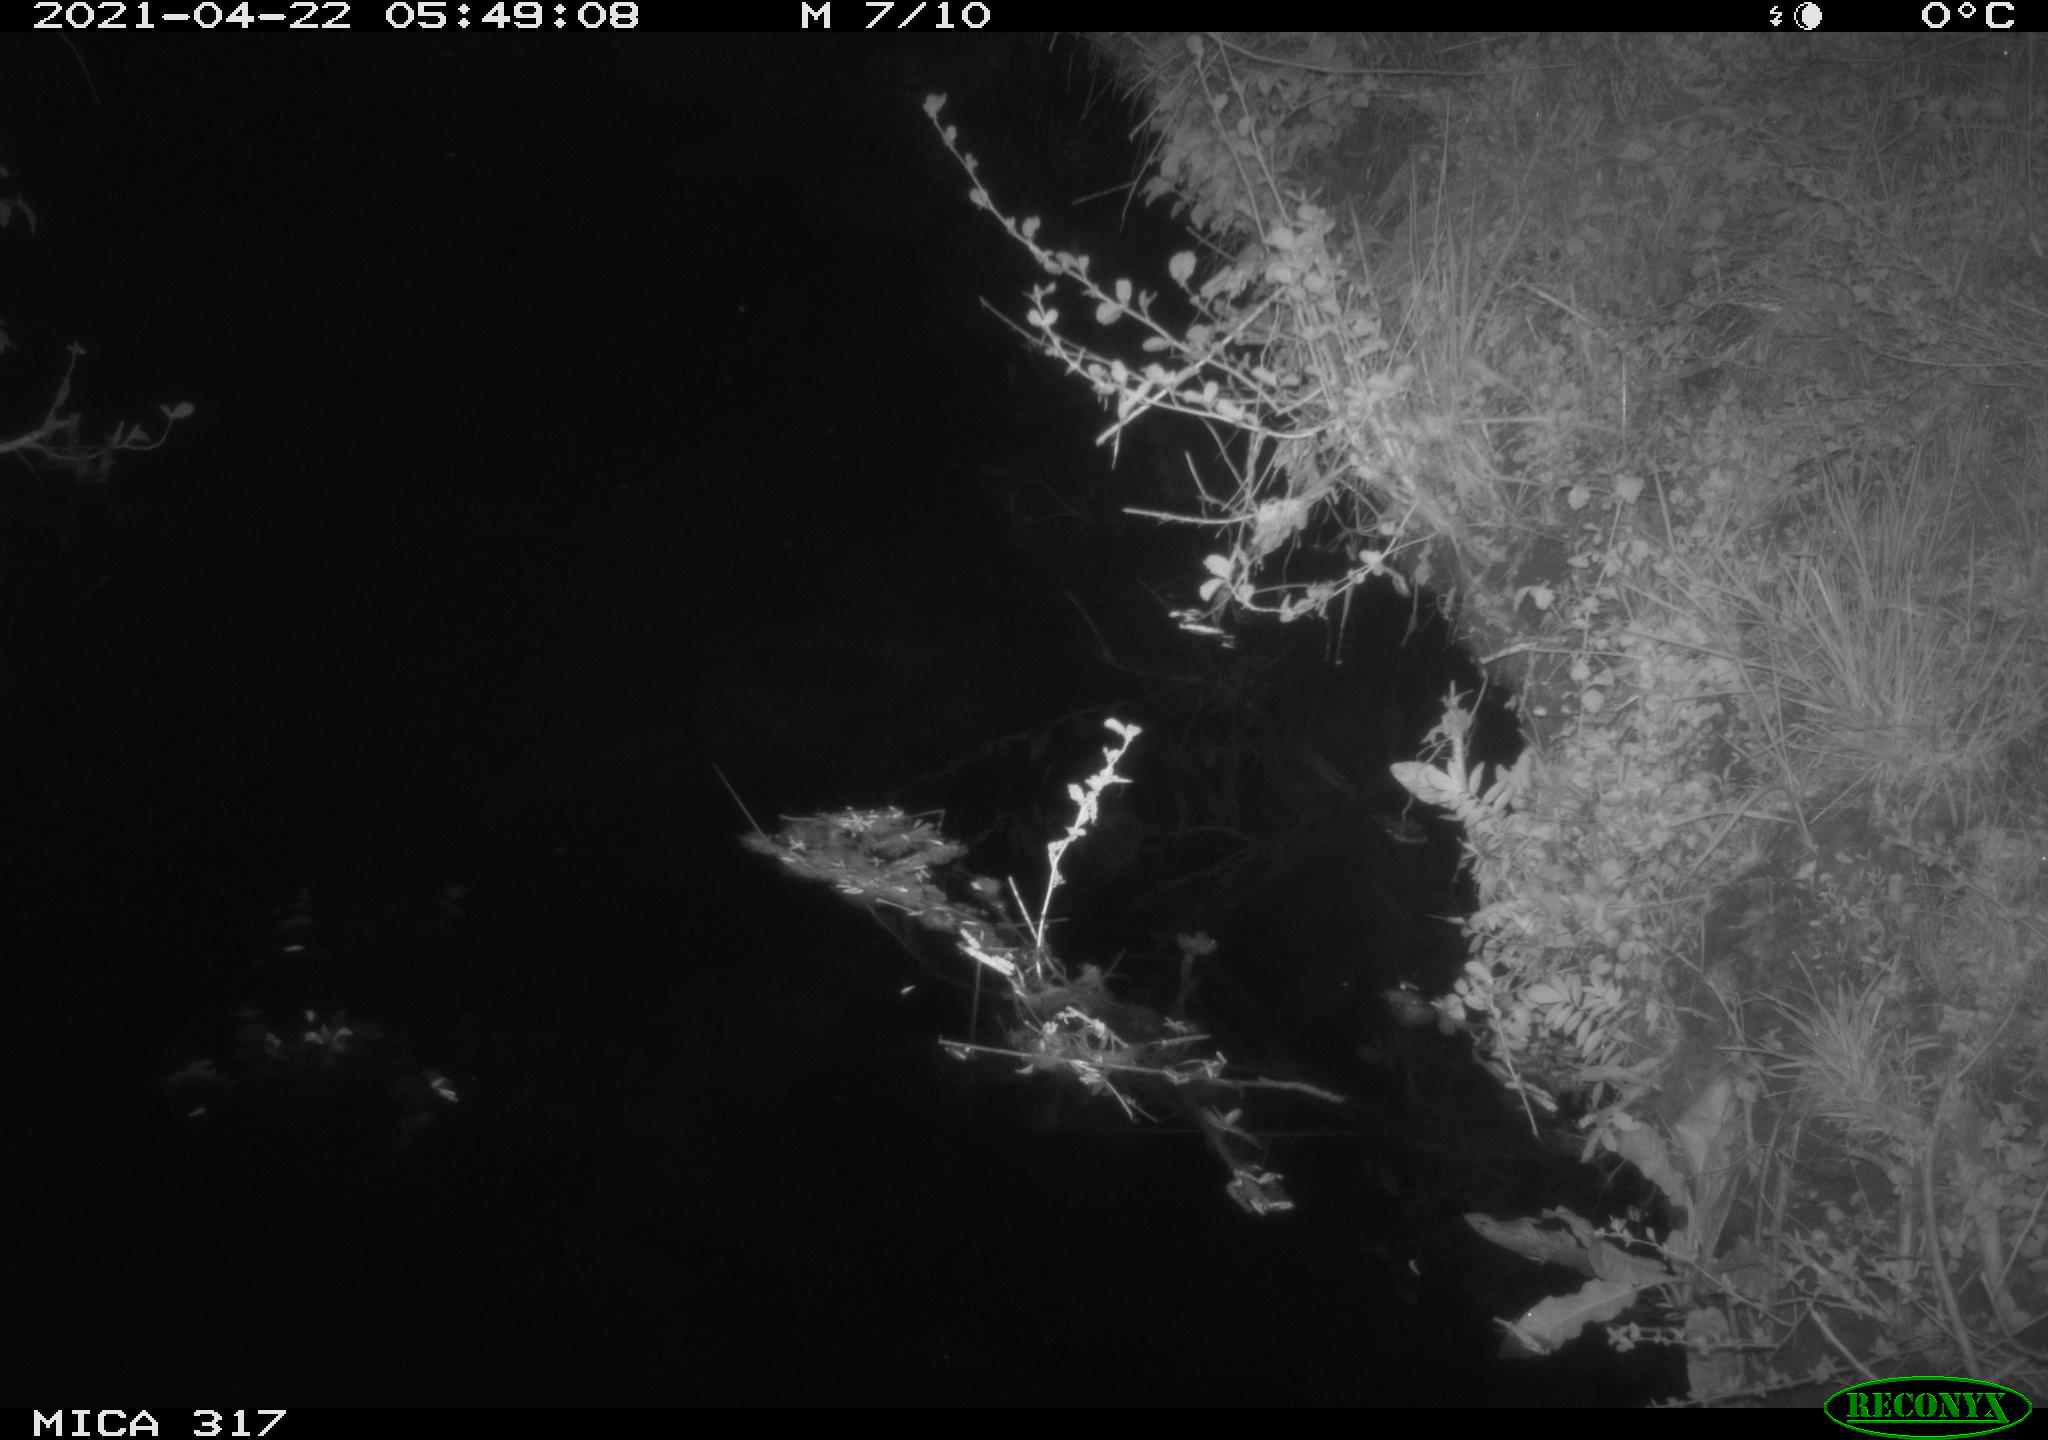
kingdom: Animalia
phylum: Chordata
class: Aves
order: Anseriformes
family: Anatidae
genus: Anas
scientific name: Anas
